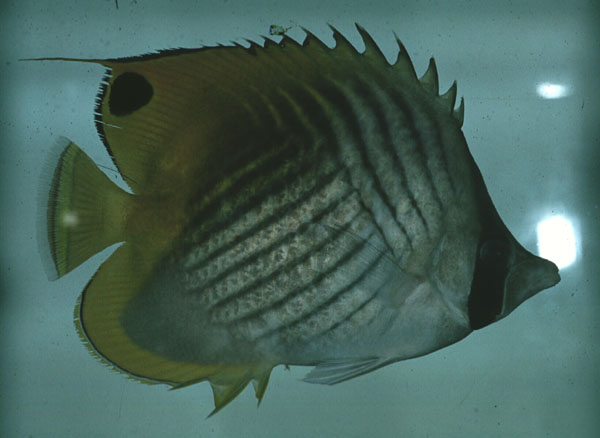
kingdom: Animalia
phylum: Chordata
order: Perciformes
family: Chaetodontidae
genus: Chaetodon
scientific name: Chaetodon auriga
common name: Threadfin butterflyfish
